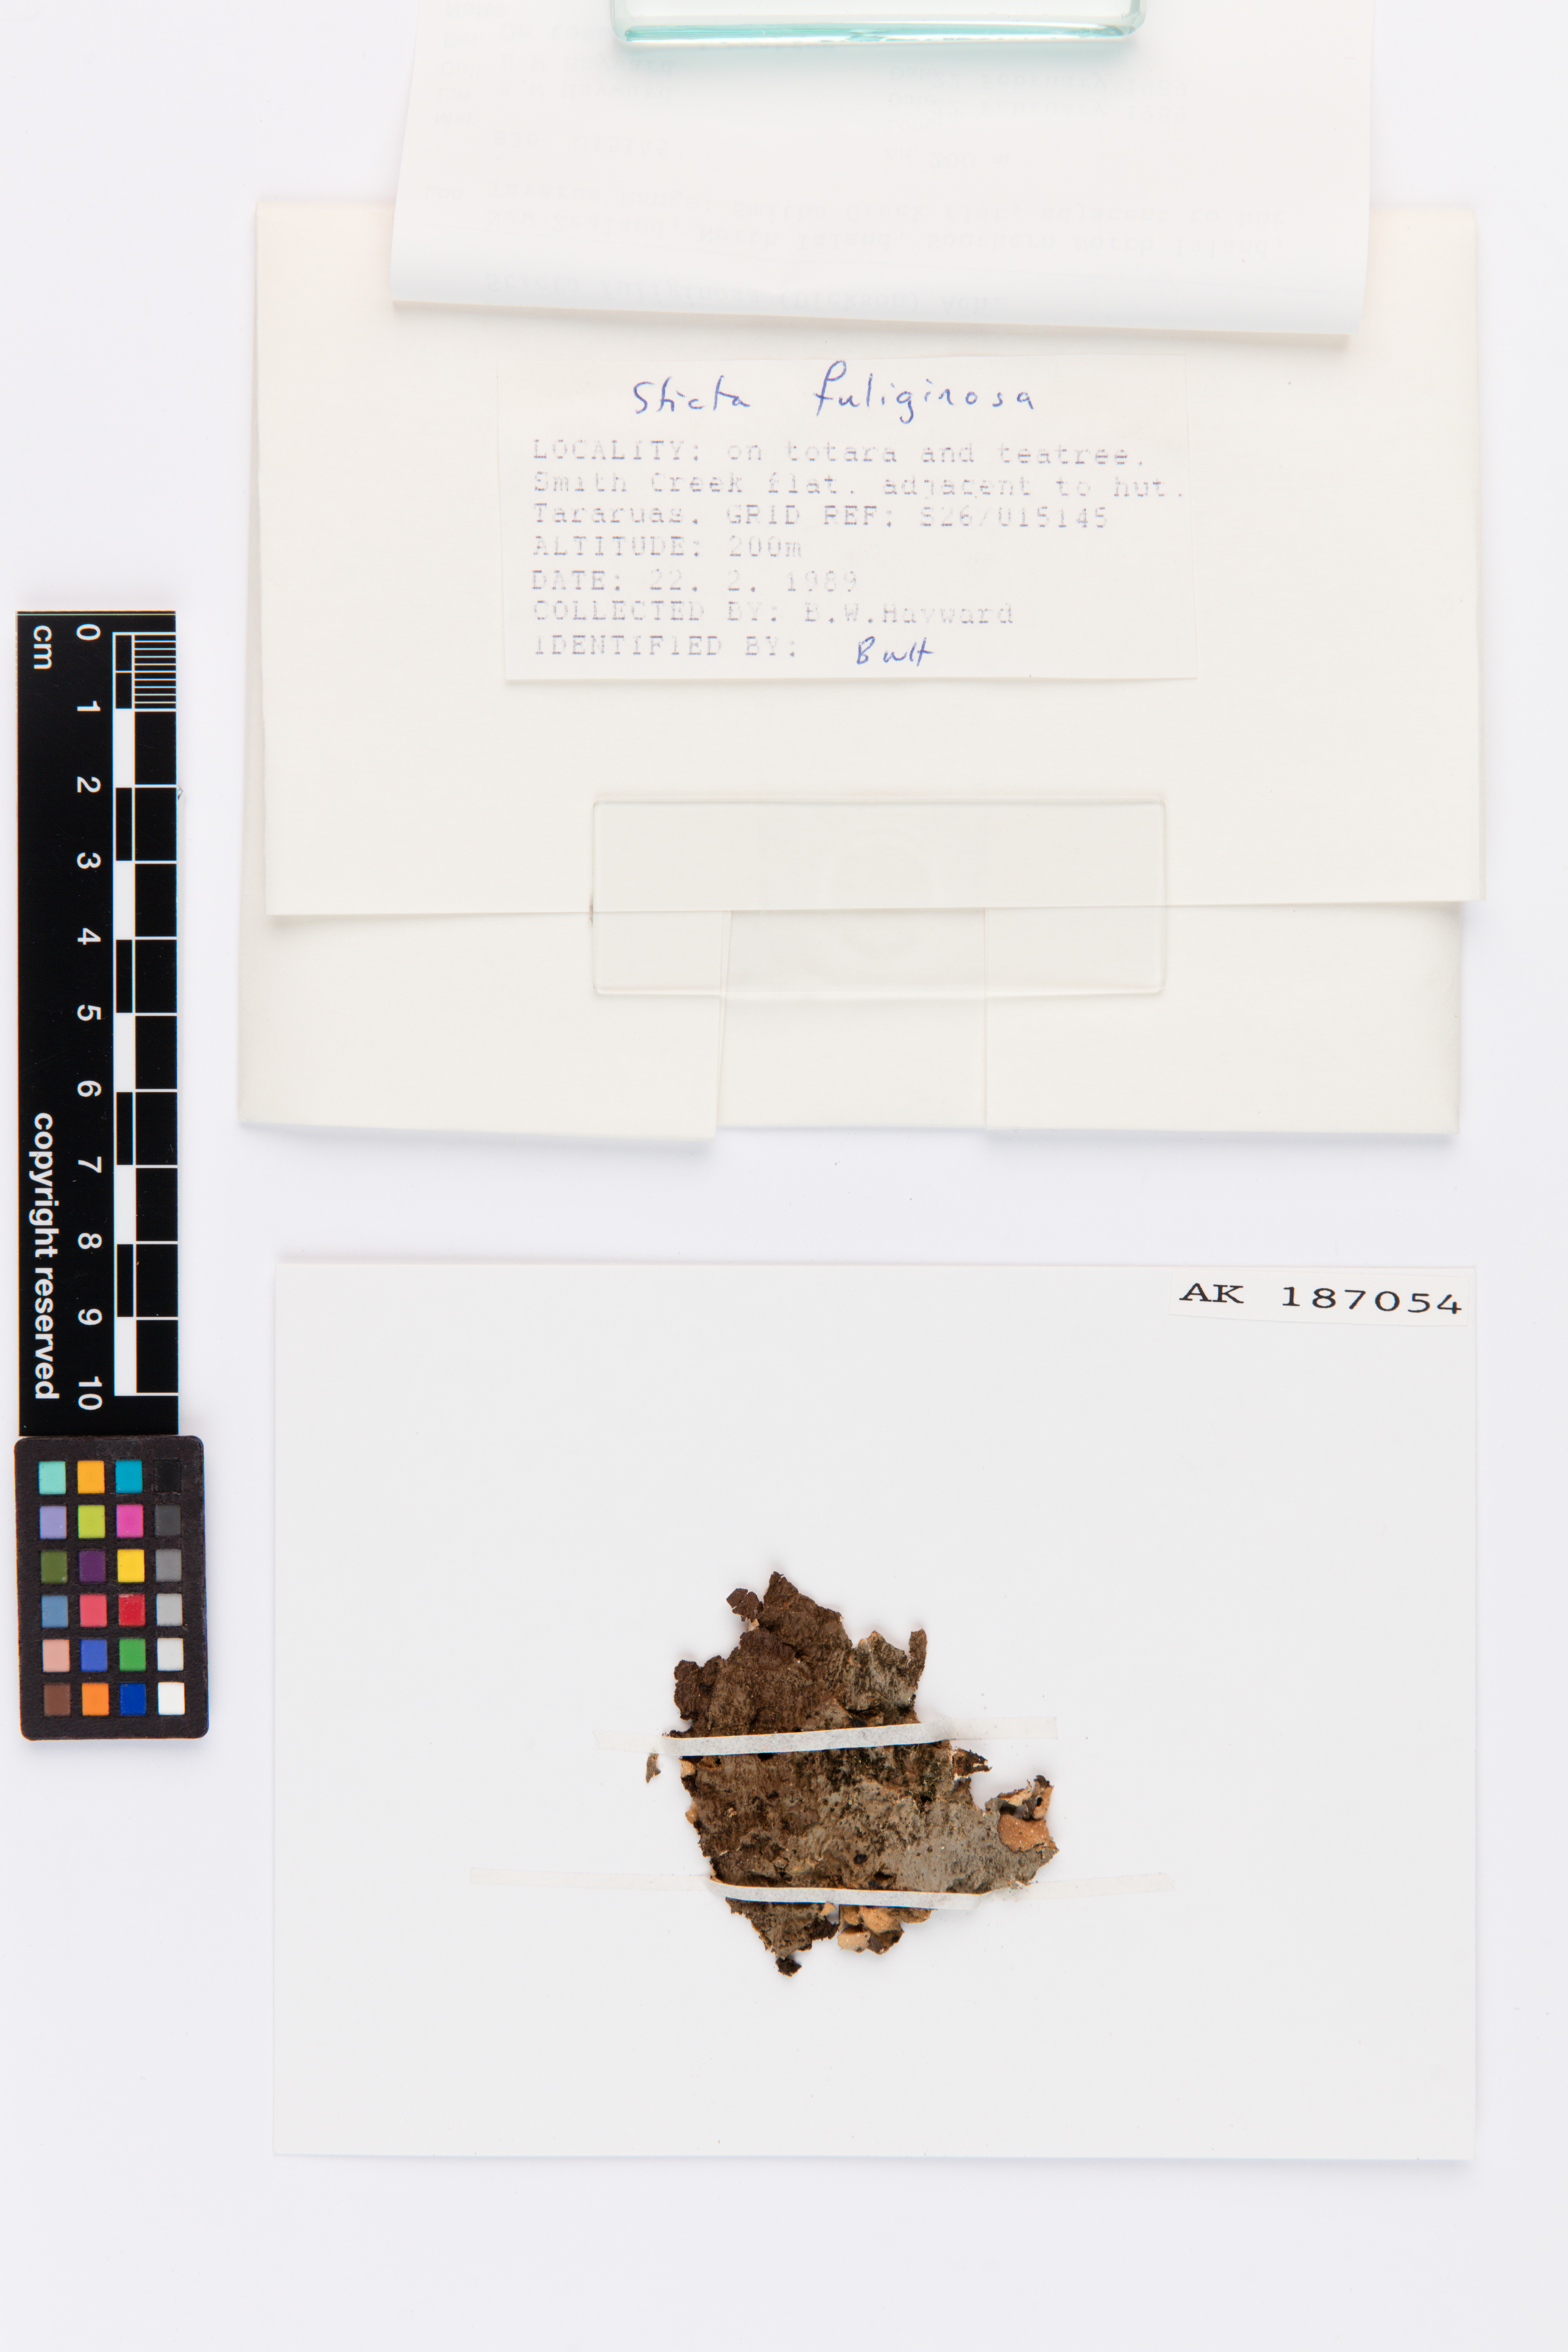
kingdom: Fungi
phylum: Ascomycota
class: Lecanoromycetes
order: Peltigerales
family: Lobariaceae
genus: Sticta
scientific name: Sticta fuliginosa
